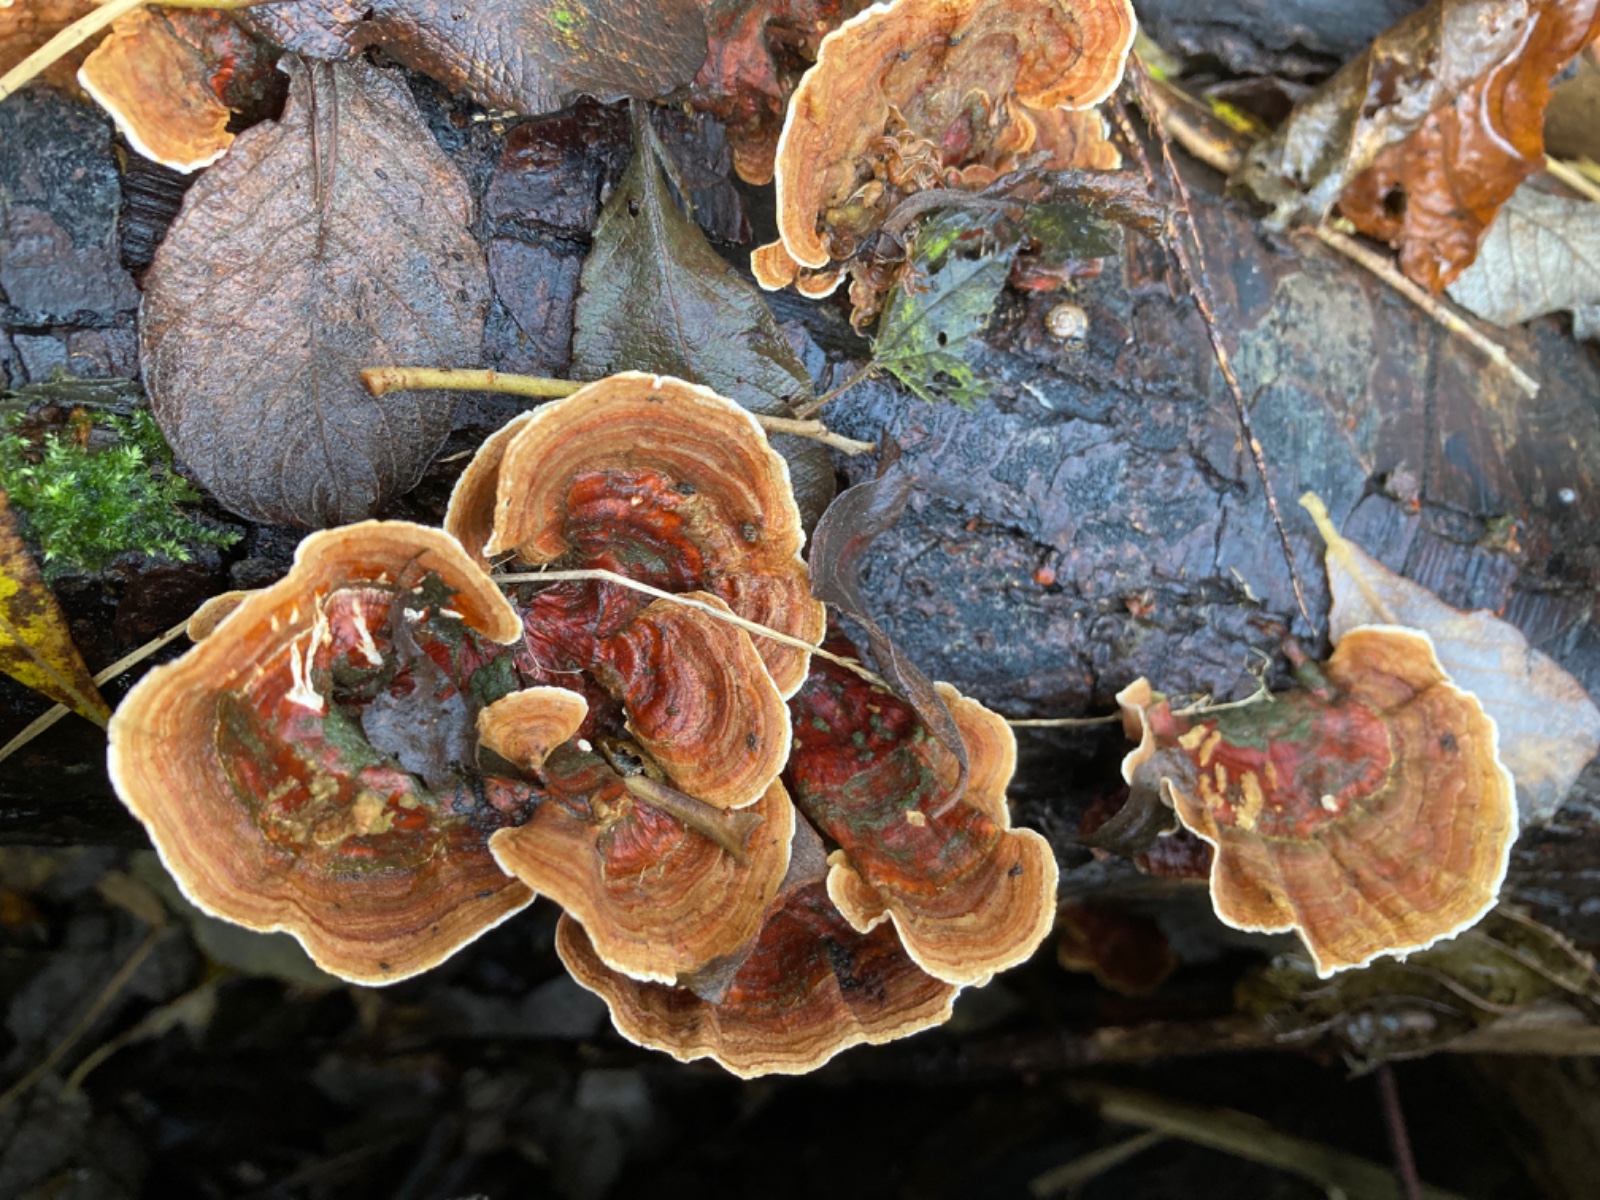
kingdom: Fungi
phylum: Basidiomycota
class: Agaricomycetes
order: Russulales
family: Stereaceae
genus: Stereum
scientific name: Stereum subtomentosum
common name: smuk lædersvamp
